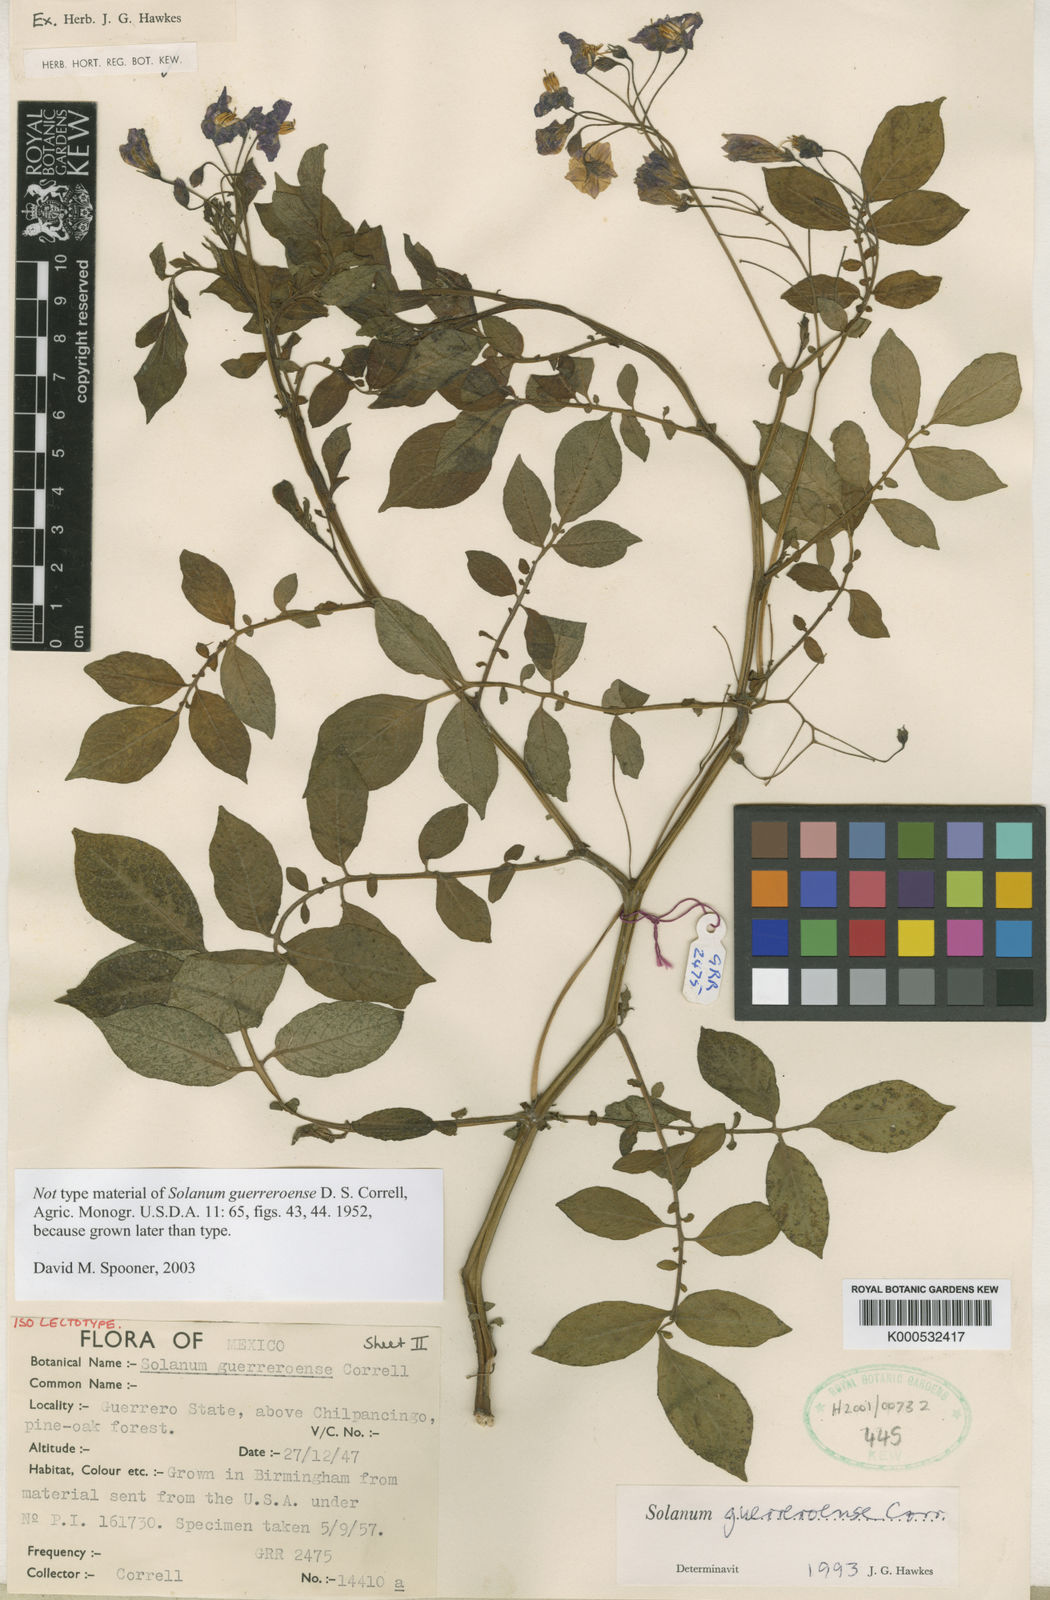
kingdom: Plantae
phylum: Tracheophyta
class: Magnoliopsida
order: Solanales
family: Solanaceae
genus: Solanum
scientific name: Solanum guerreroense
